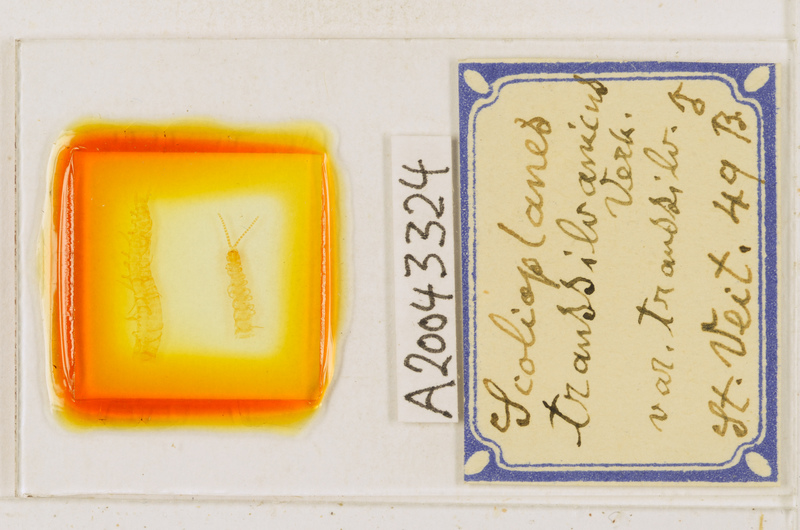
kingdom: Animalia
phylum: Arthropoda
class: Chilopoda
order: Geophilomorpha
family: Linotaeniidae
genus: Strigamia
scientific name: Strigamia transsilvanica
